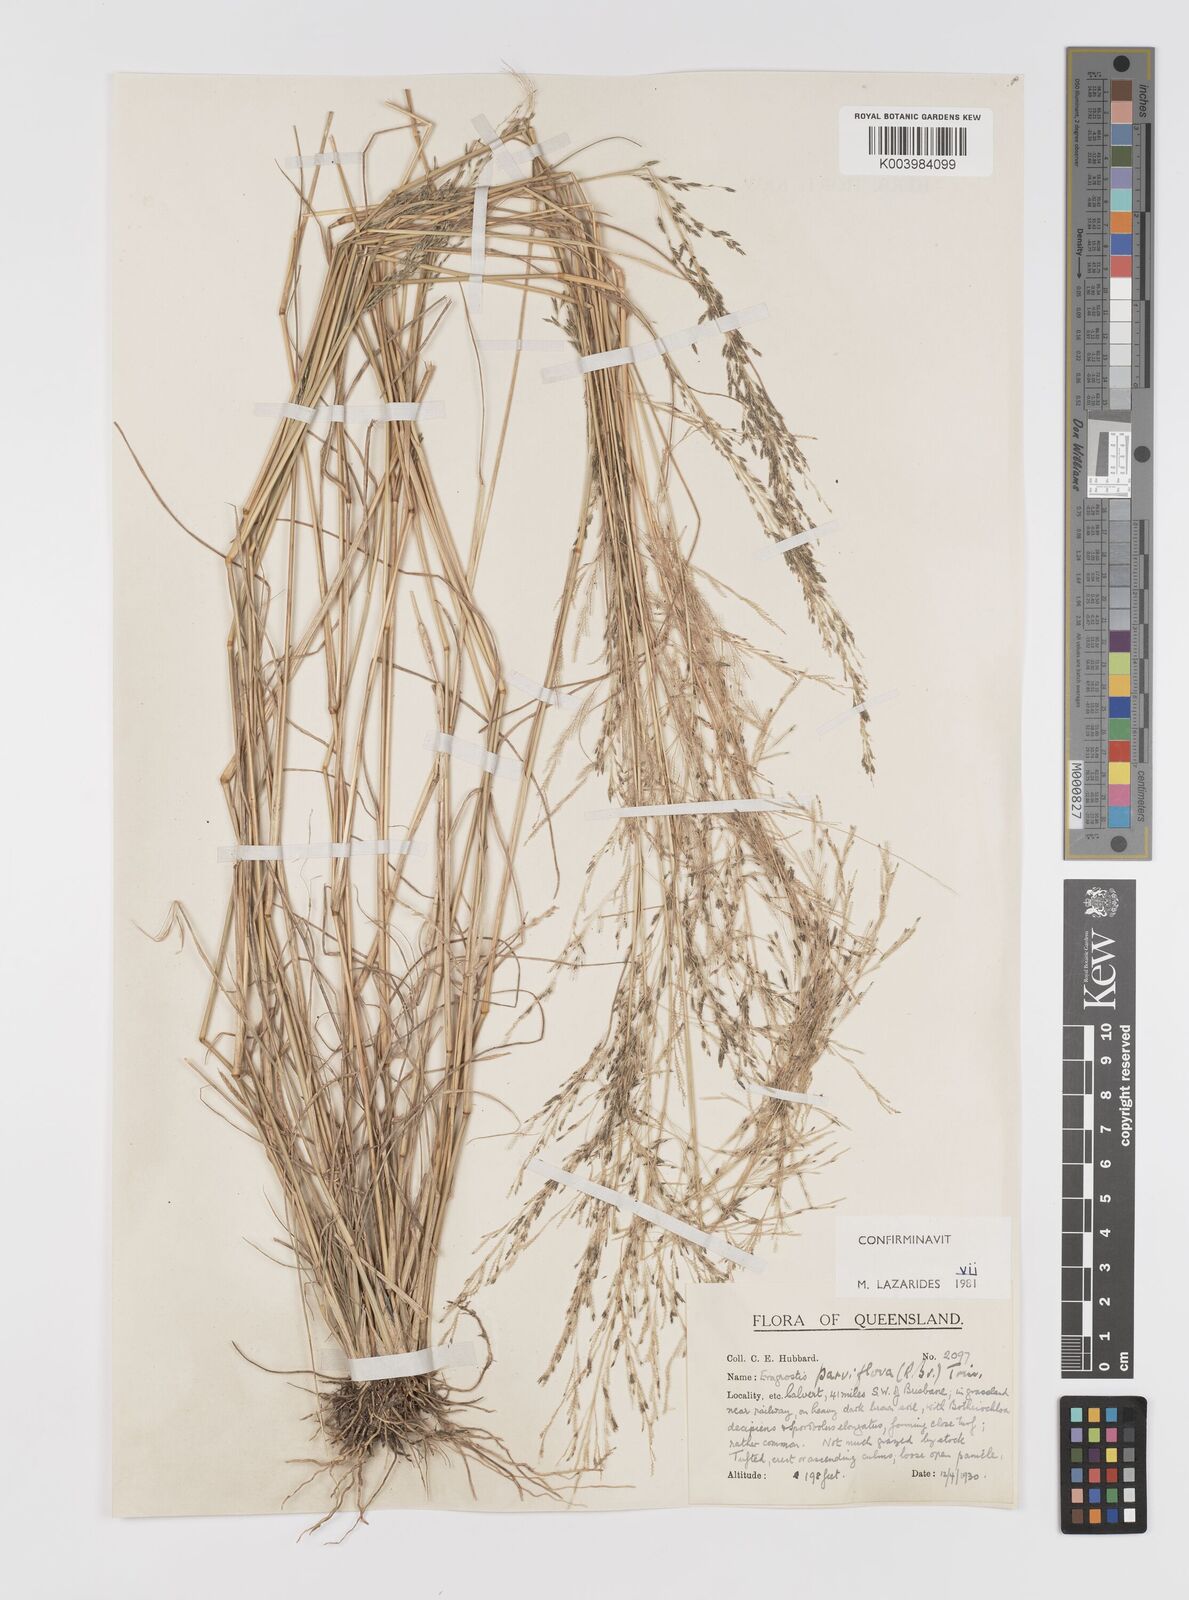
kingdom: Plantae
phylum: Tracheophyta
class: Liliopsida
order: Poales
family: Poaceae
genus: Eragrostis
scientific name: Eragrostis parviflora
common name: Weeping love-grass
